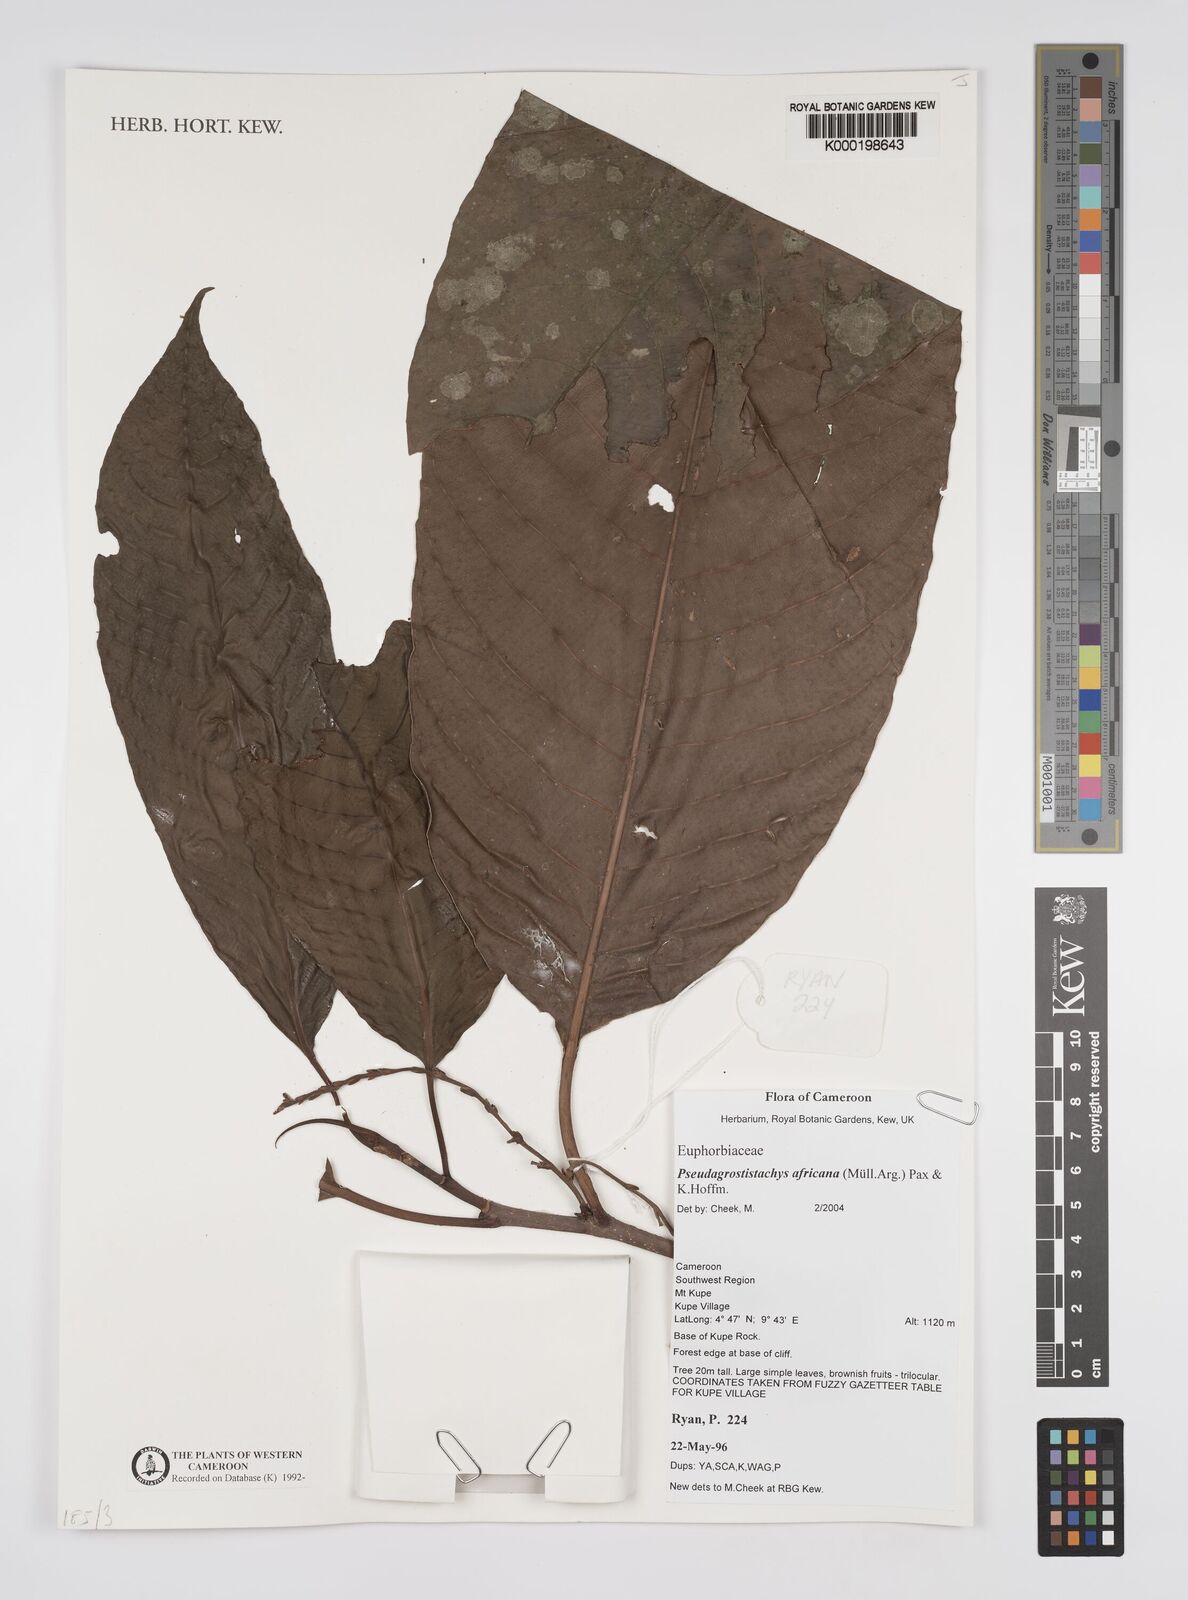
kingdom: Plantae
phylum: Tracheophyta
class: Magnoliopsida
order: Malpighiales
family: Euphorbiaceae
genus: Pseudagrostistachys
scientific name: Pseudagrostistachys
